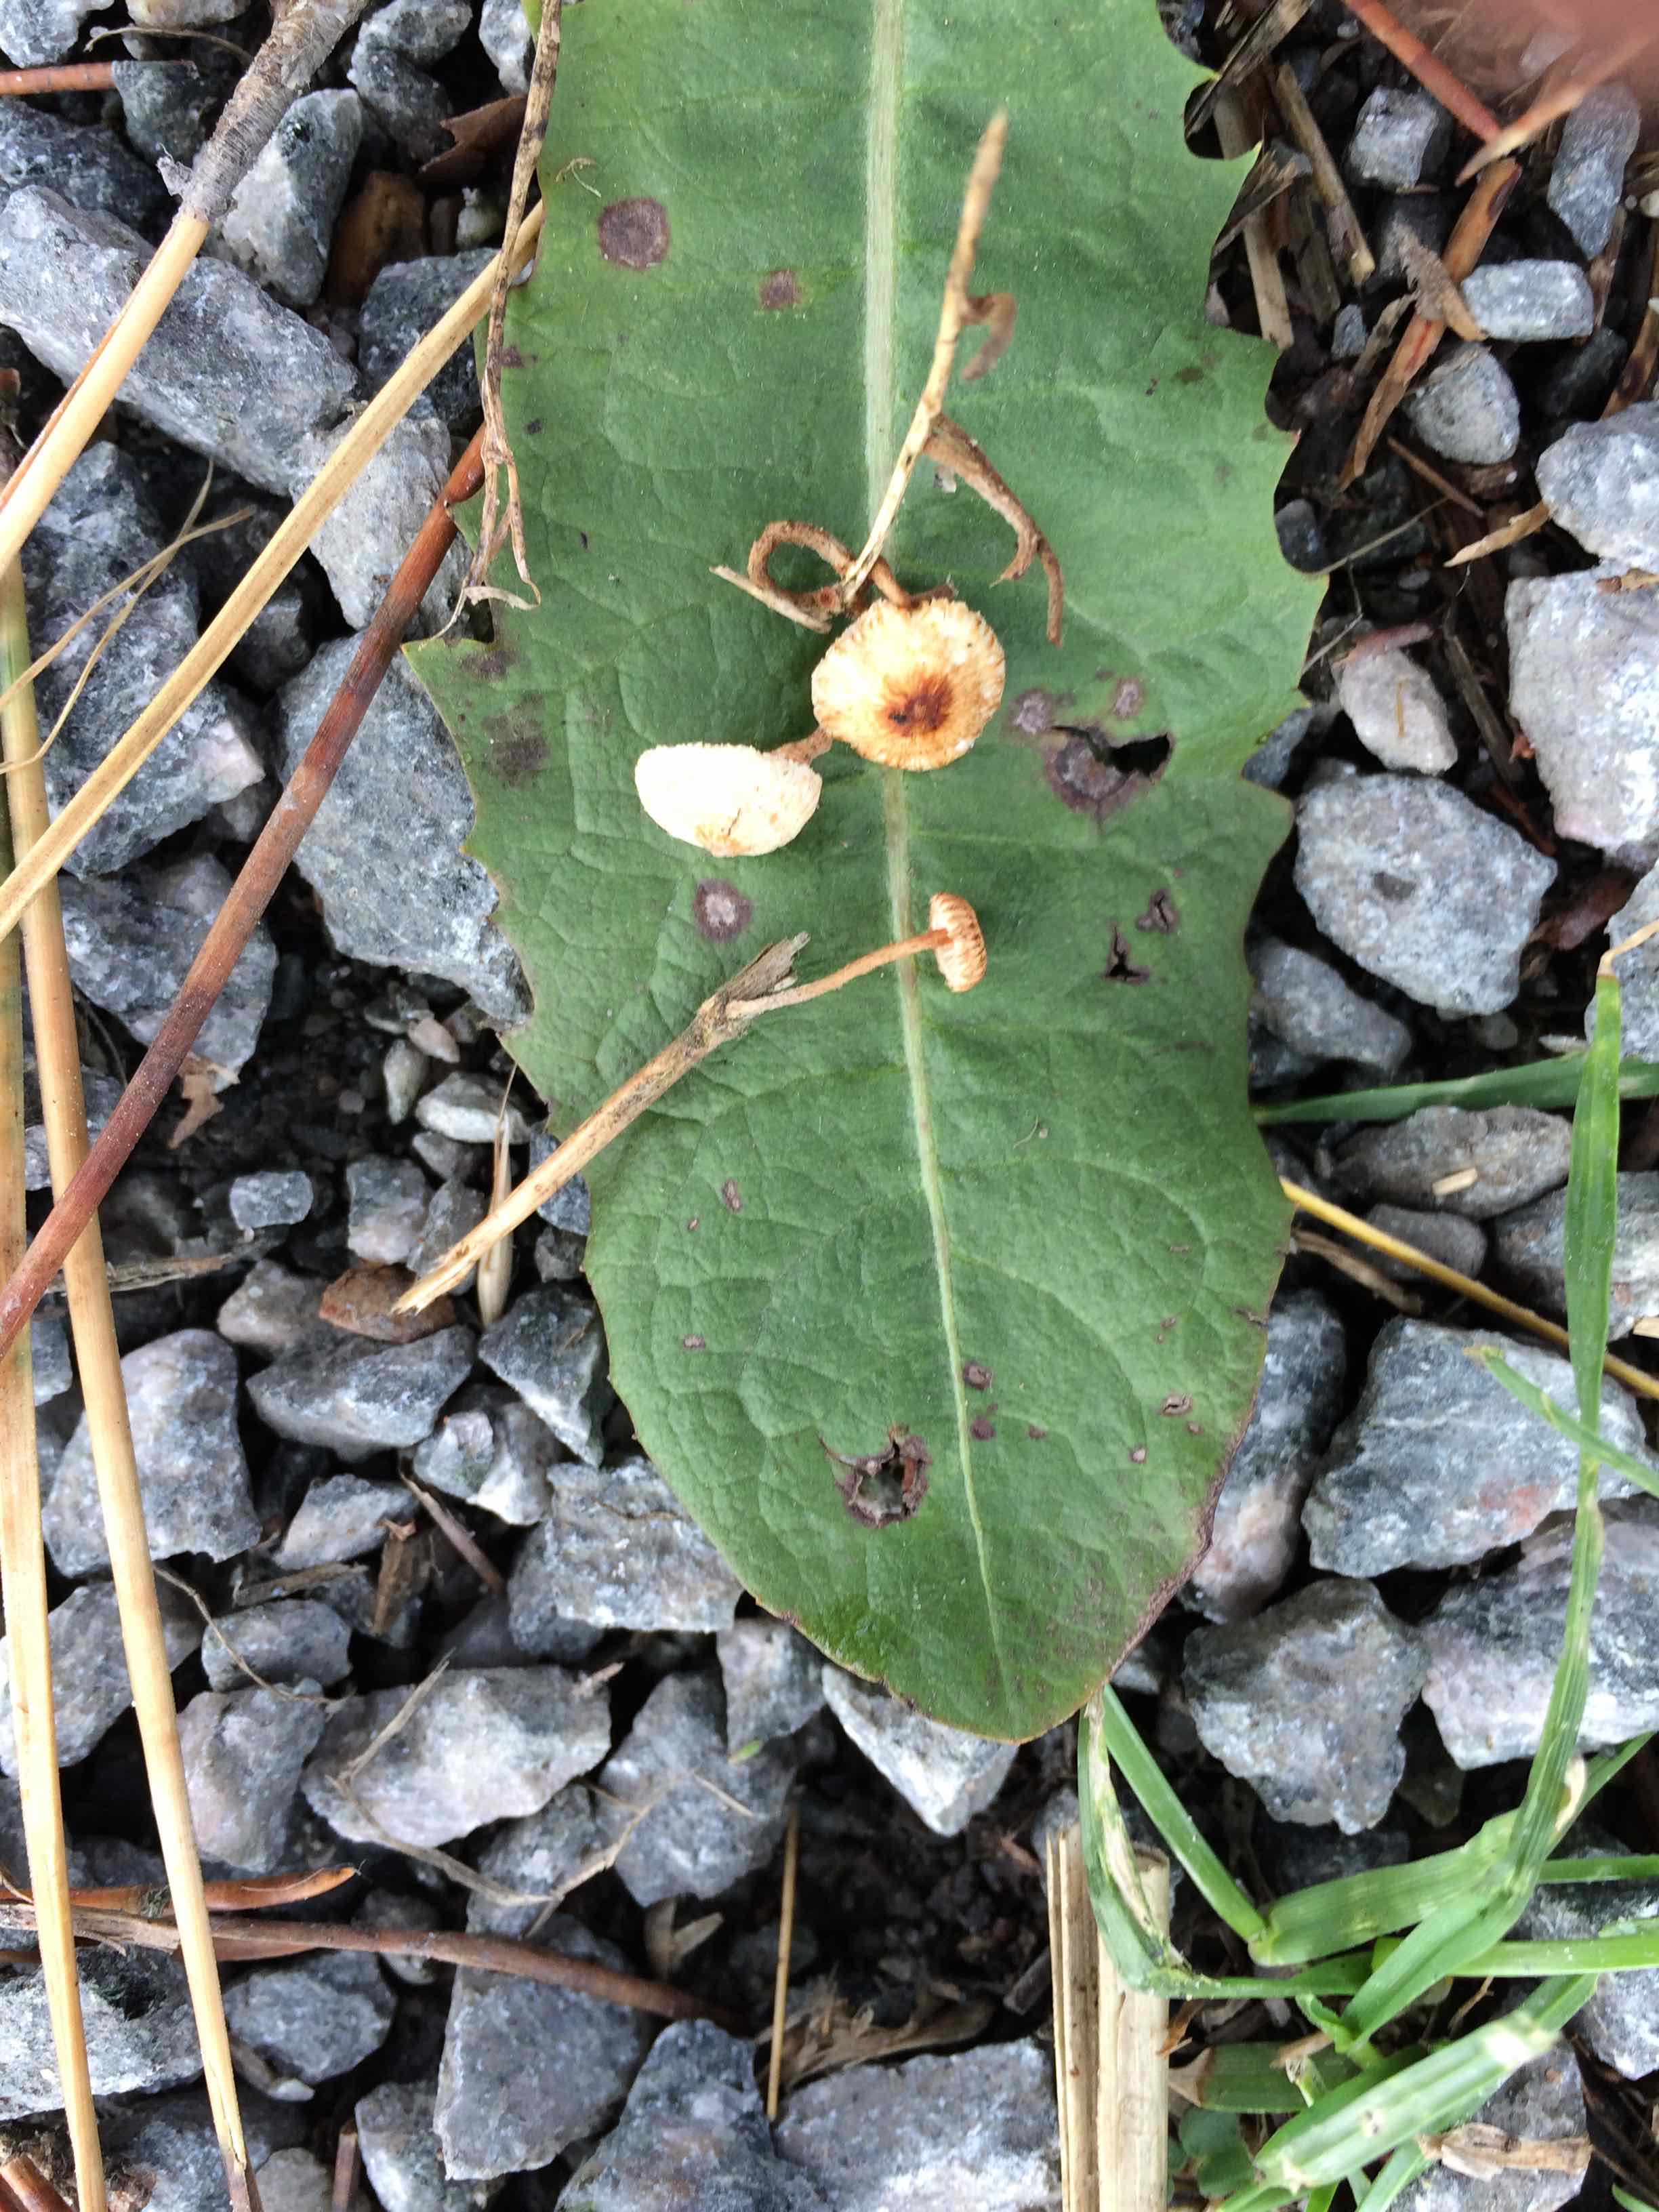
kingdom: Fungi
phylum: Basidiomycota
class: Agaricomycetes
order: Agaricales
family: Marasmiaceae
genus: Crinipellis
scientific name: Crinipellis scabella
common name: børstefod
